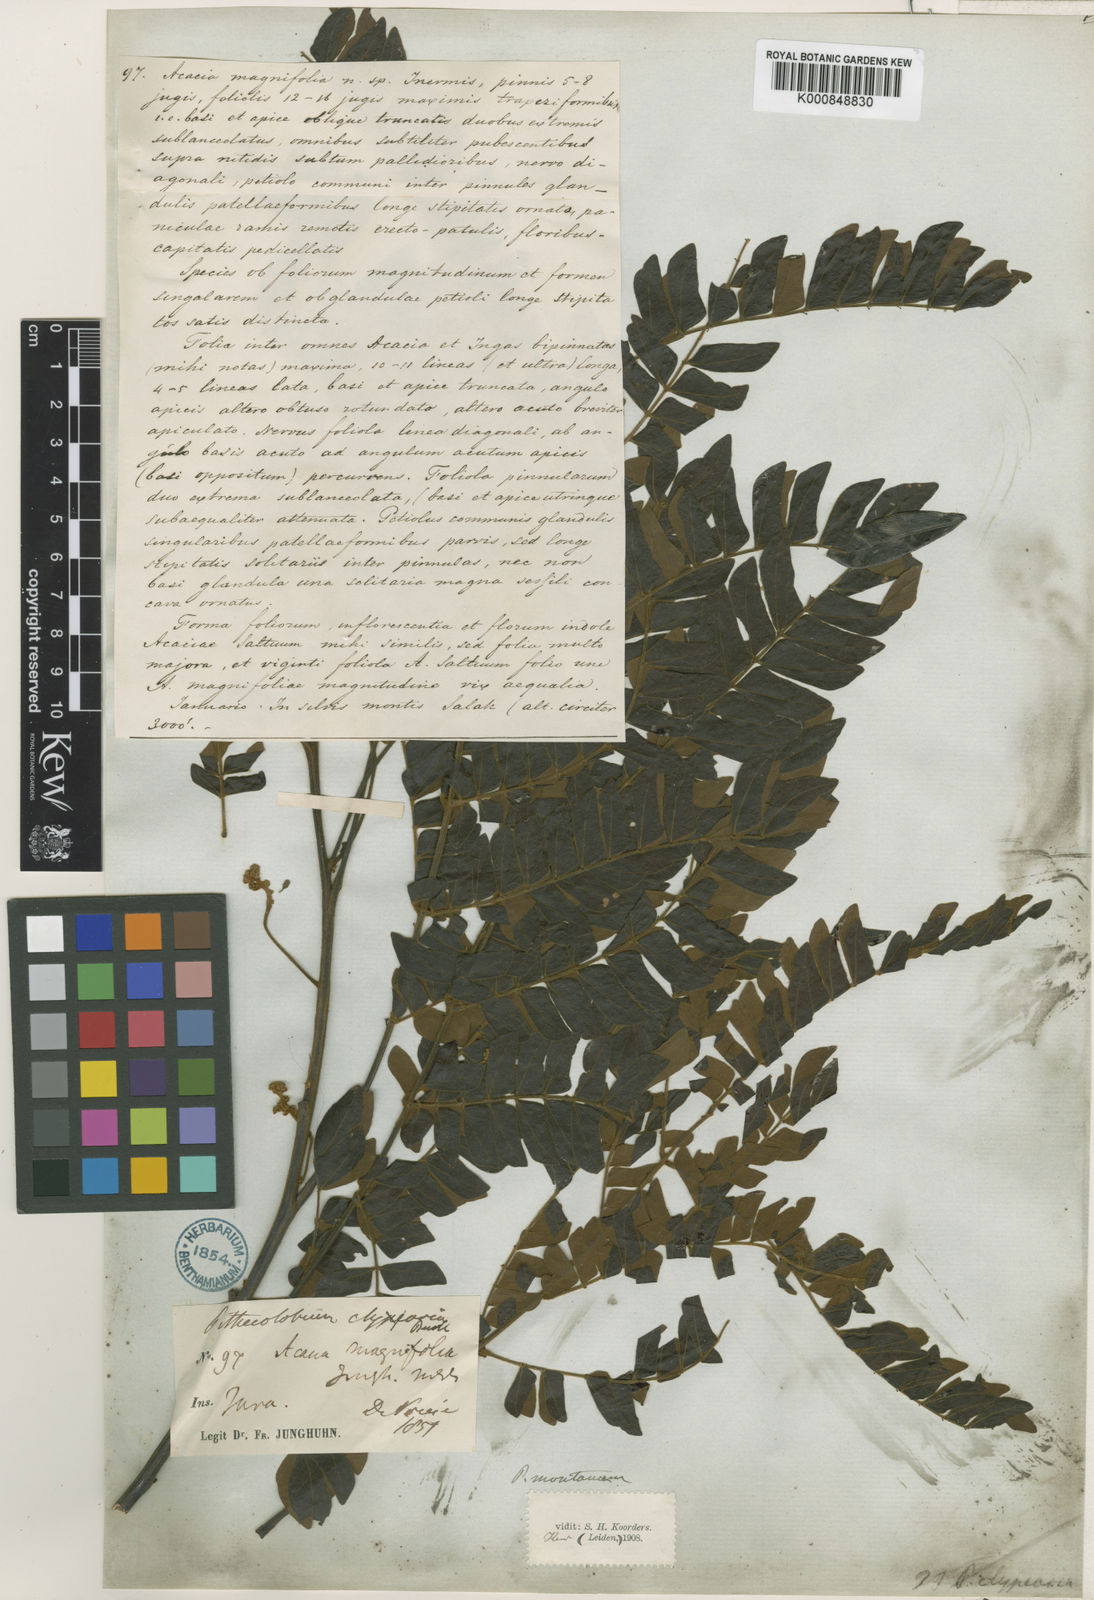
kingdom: Plantae
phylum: Tracheophyta
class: Magnoliopsida
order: Fabales
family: Fabaceae
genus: Archidendron
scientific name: Archidendron clypearia
